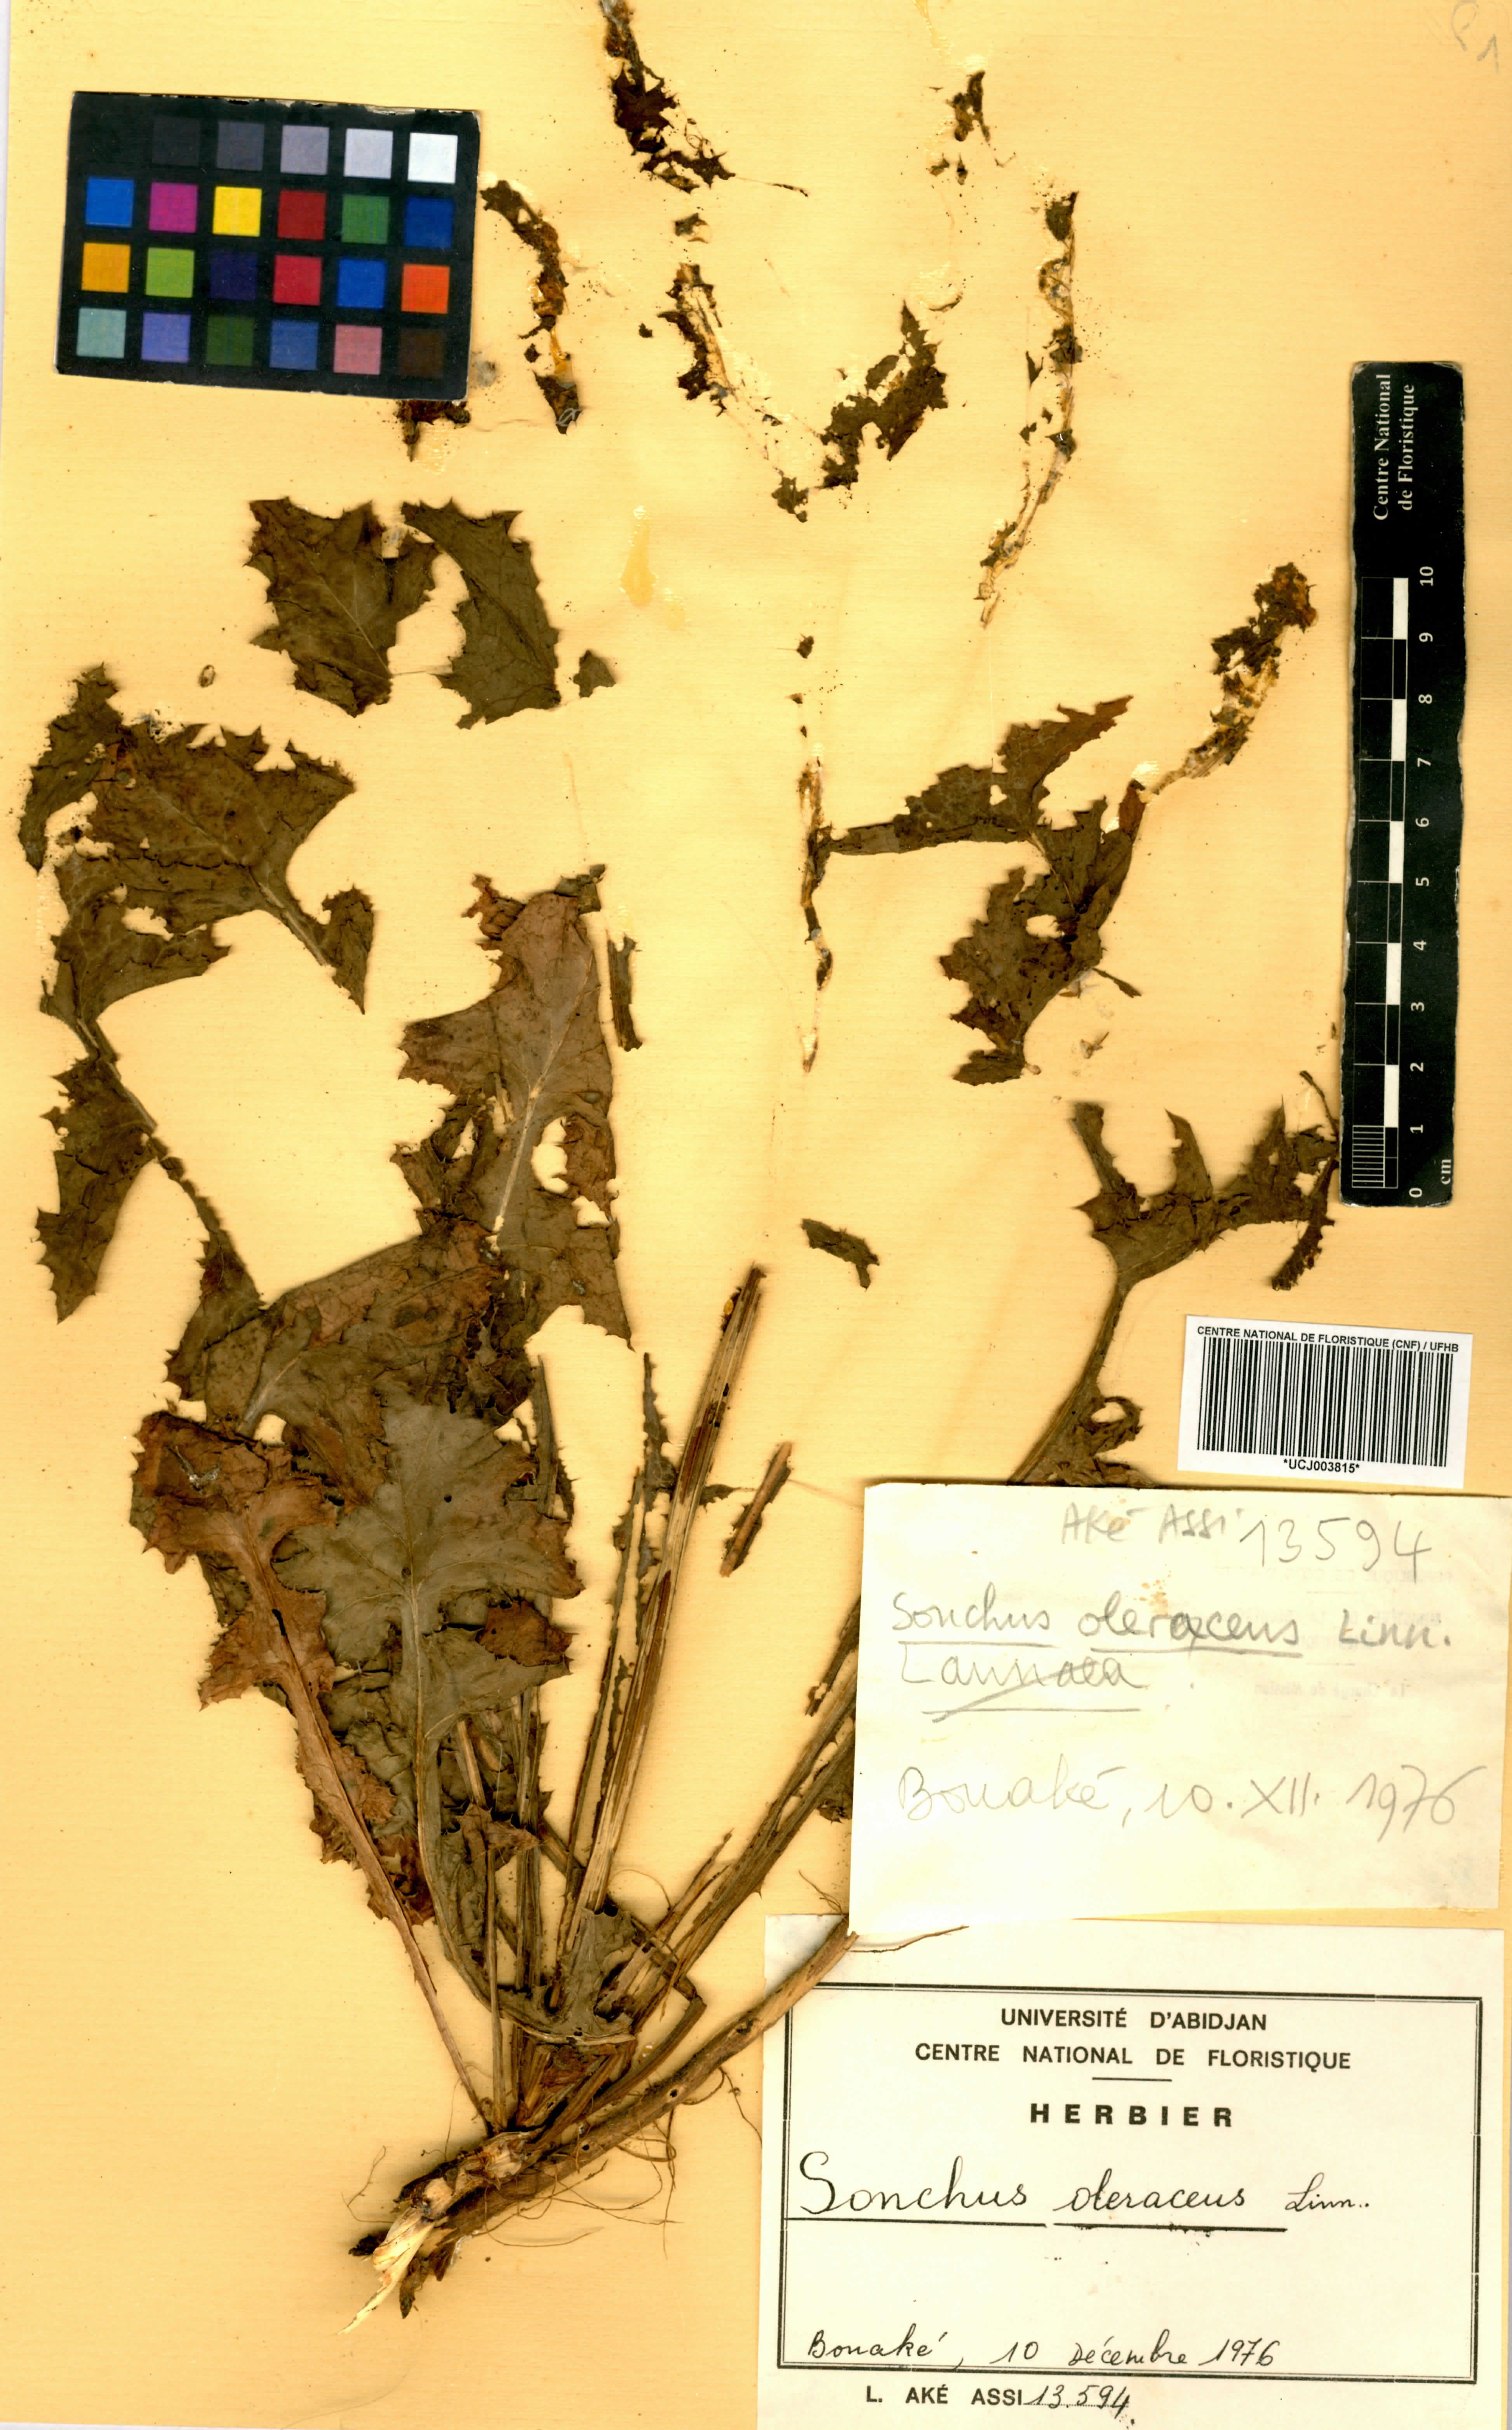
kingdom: Plantae
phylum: Tracheophyta
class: Magnoliopsida
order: Asterales
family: Asteraceae
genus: Sonchus
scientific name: Sonchus oleraceus
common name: Common sowthistle
